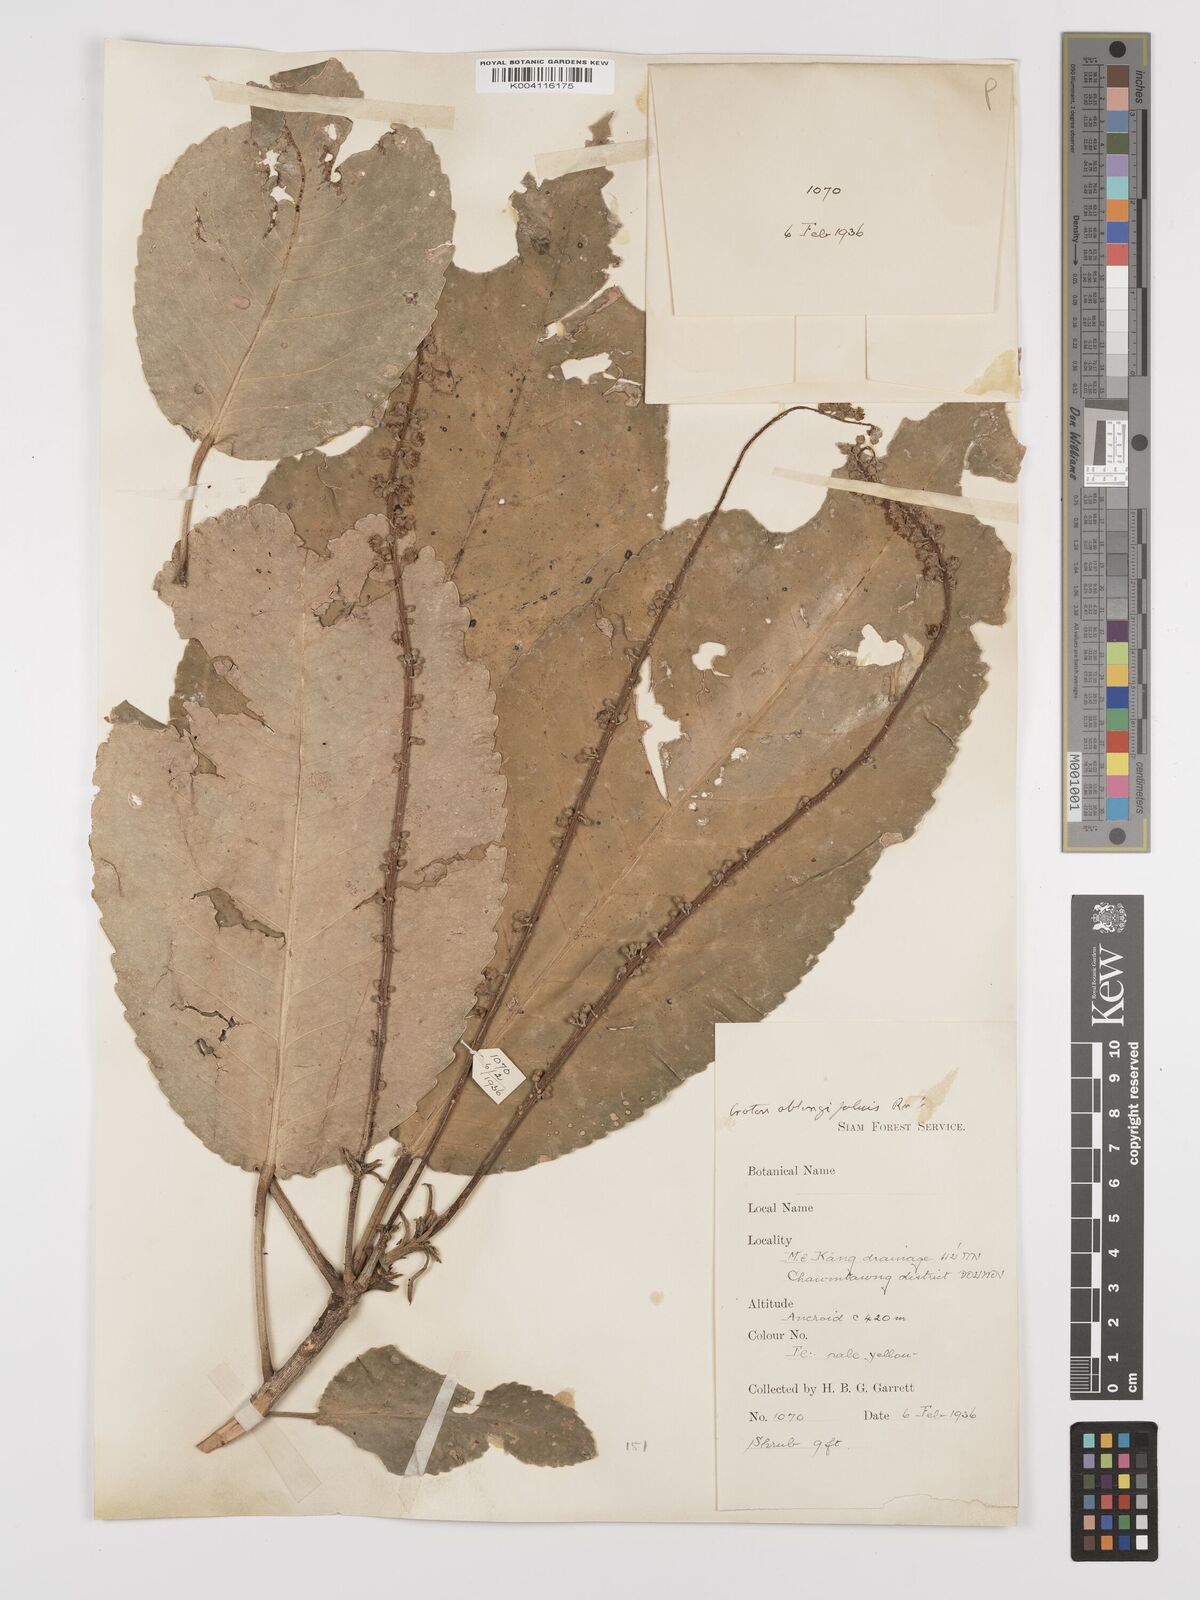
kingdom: Plantae
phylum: Tracheophyta
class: Magnoliopsida
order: Malpighiales
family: Euphorbiaceae
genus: Croton
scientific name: Croton
